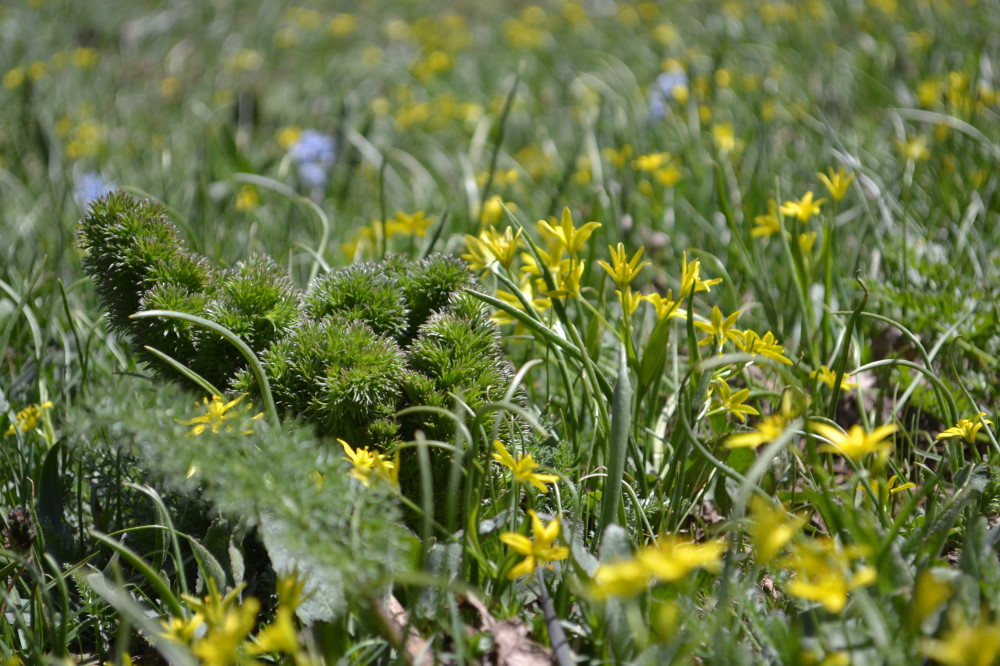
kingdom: Plantae
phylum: Tracheophyta
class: Liliopsida
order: Liliales
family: Liliaceae
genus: Gagea
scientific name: Gagea glacialis
